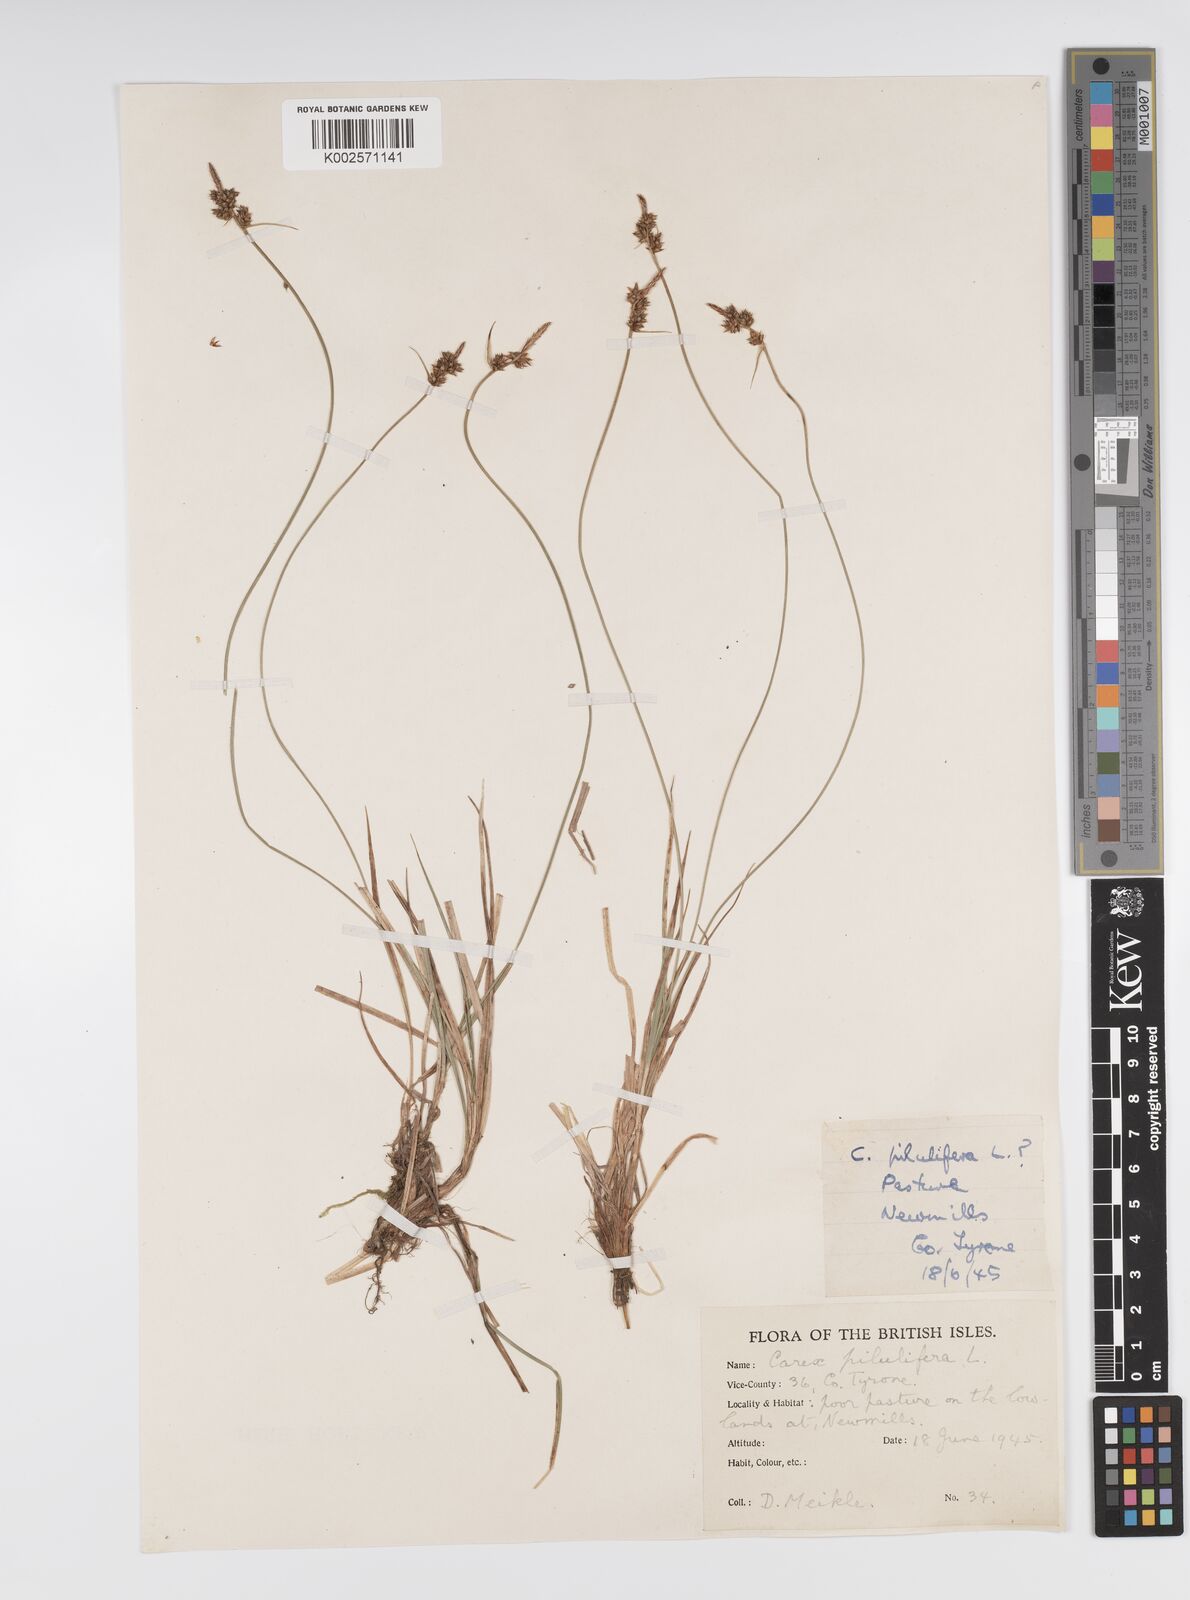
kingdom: Plantae
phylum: Tracheophyta
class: Liliopsida
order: Poales
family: Cyperaceae
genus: Carex
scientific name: Carex pilulifera
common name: Pill sedge
